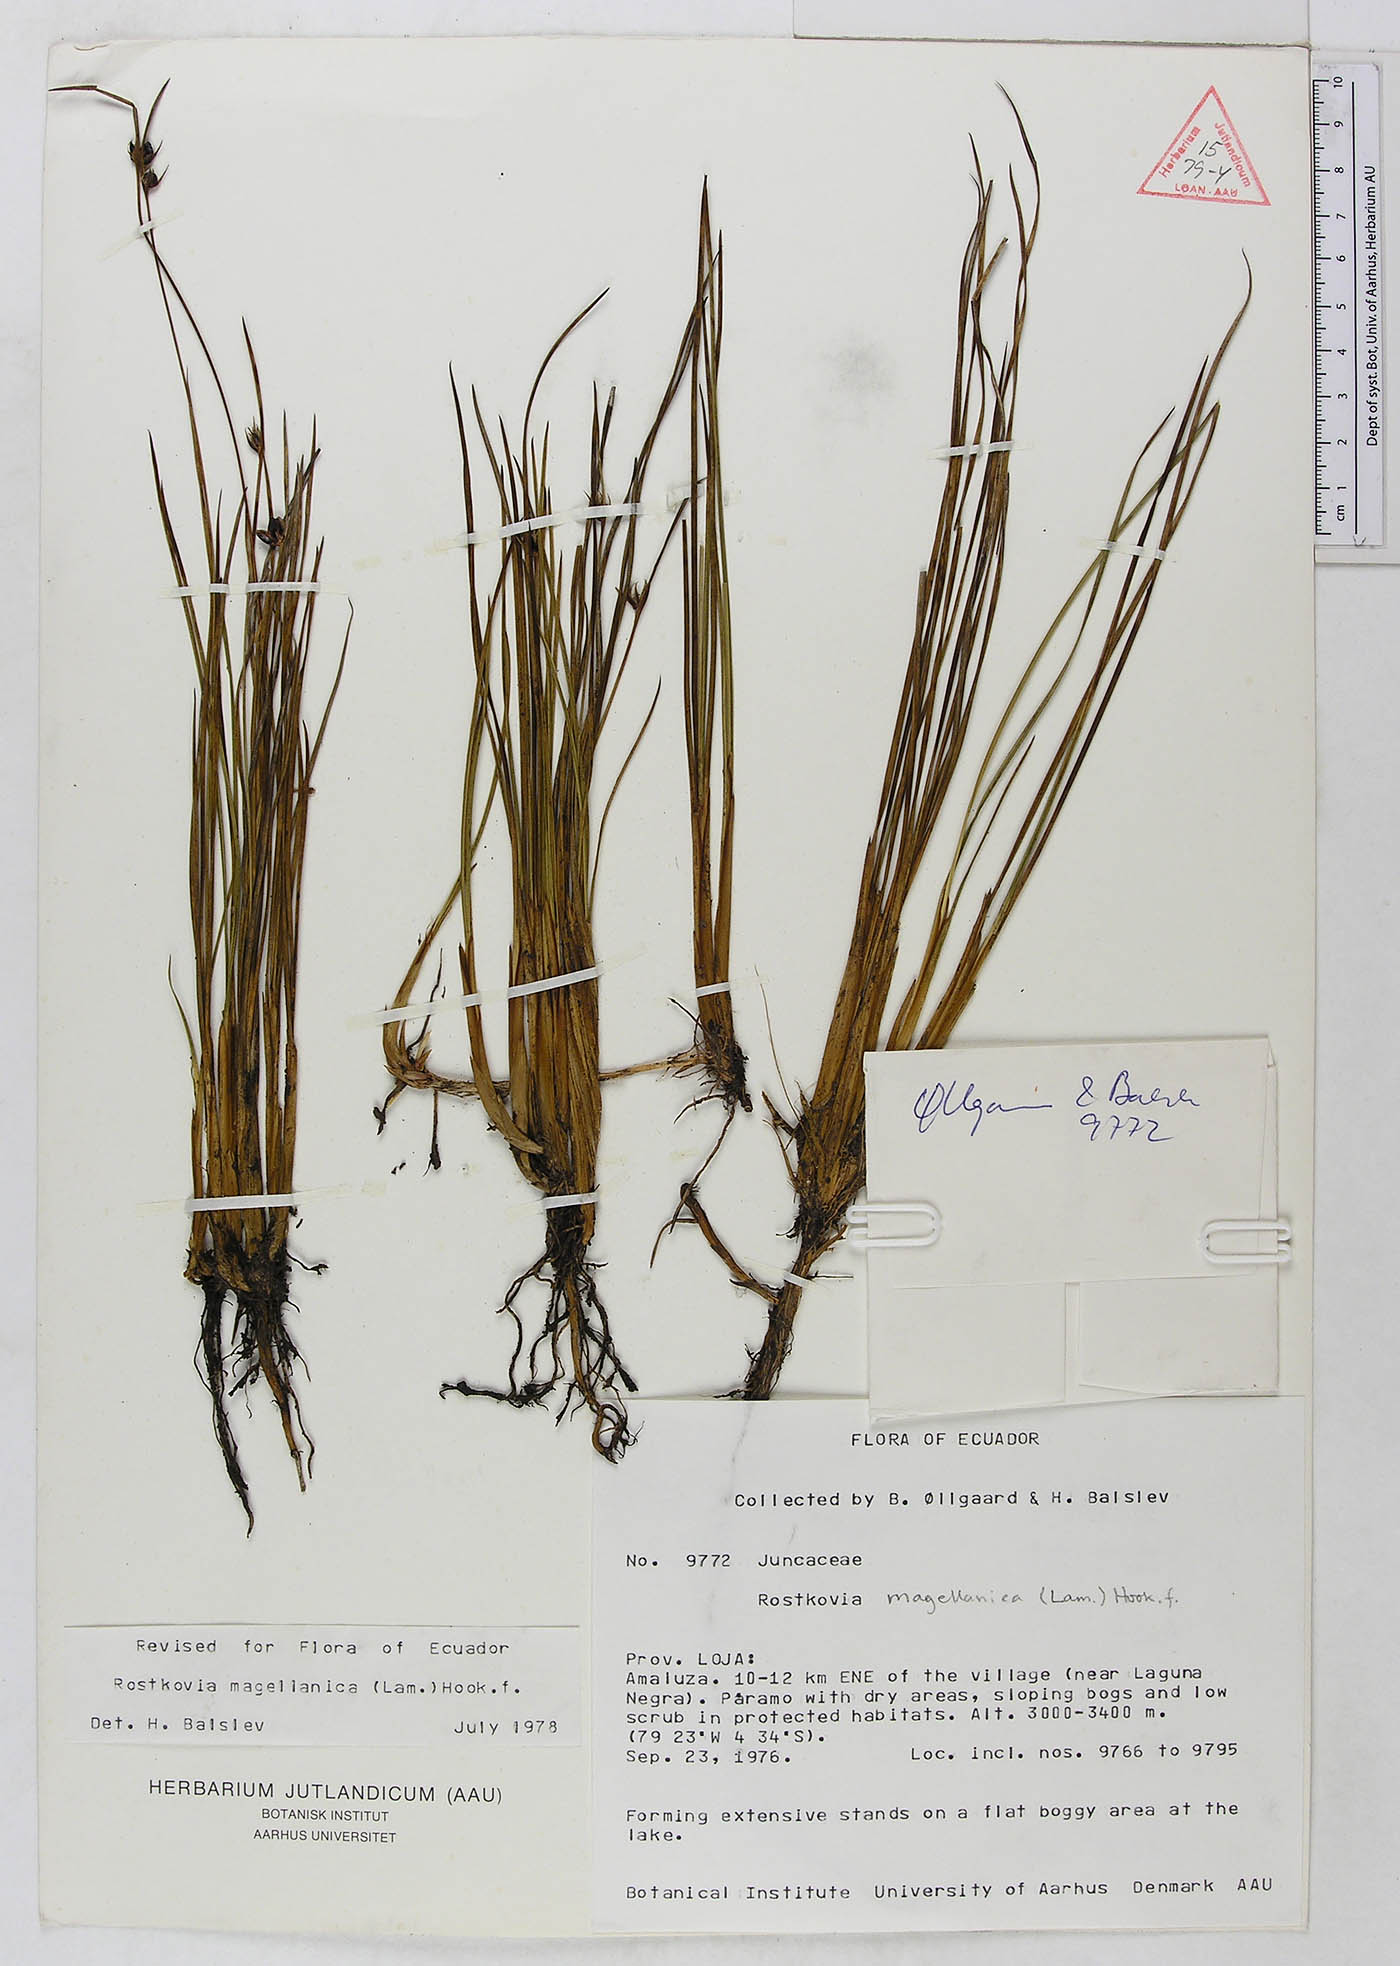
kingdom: Plantae
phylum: Tracheophyta
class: Liliopsida
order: Poales
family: Juncaceae
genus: Rostkovia
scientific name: Rostkovia magellanica
